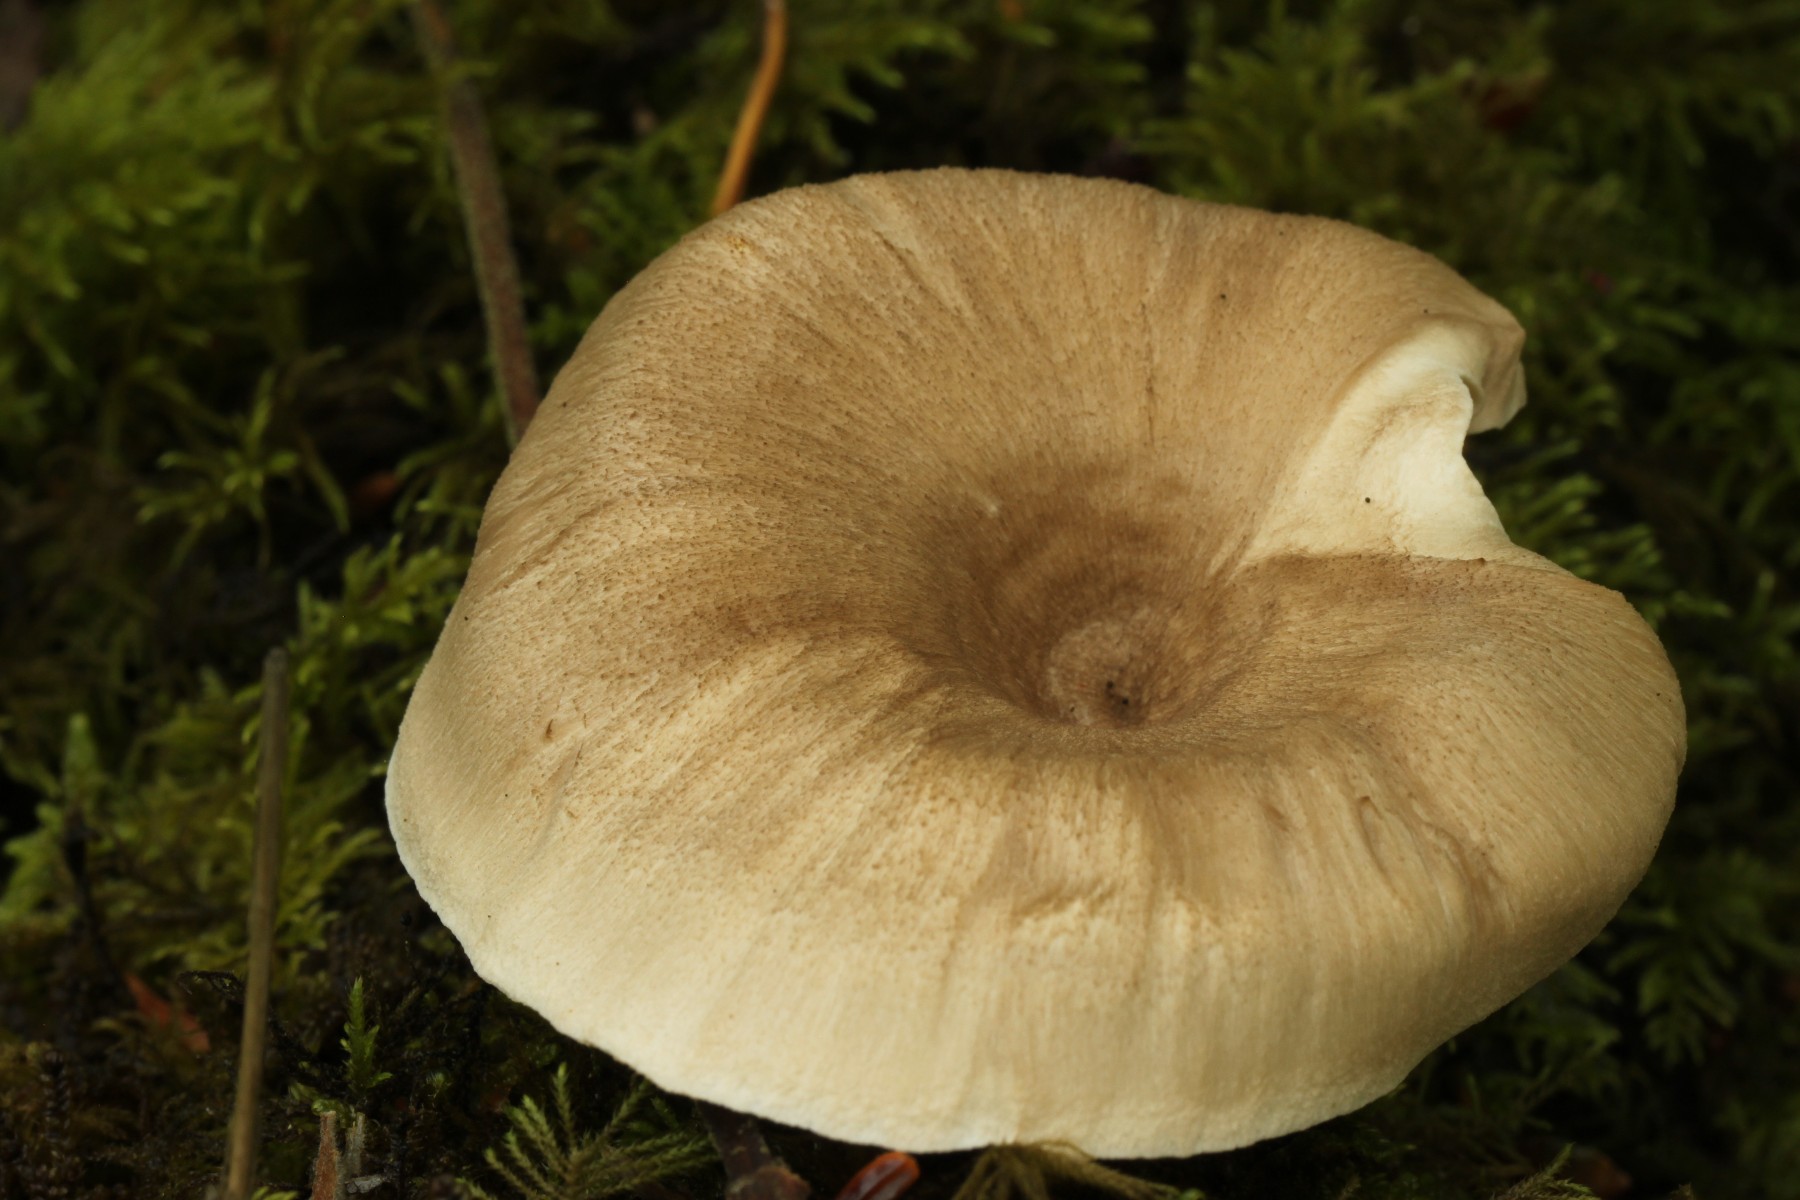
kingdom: Fungi
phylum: Basidiomycota
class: Agaricomycetes
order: Polyporales
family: Polyporaceae
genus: Picipes
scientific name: Picipes tubaeformis
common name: trompet-stilkporesvamp
